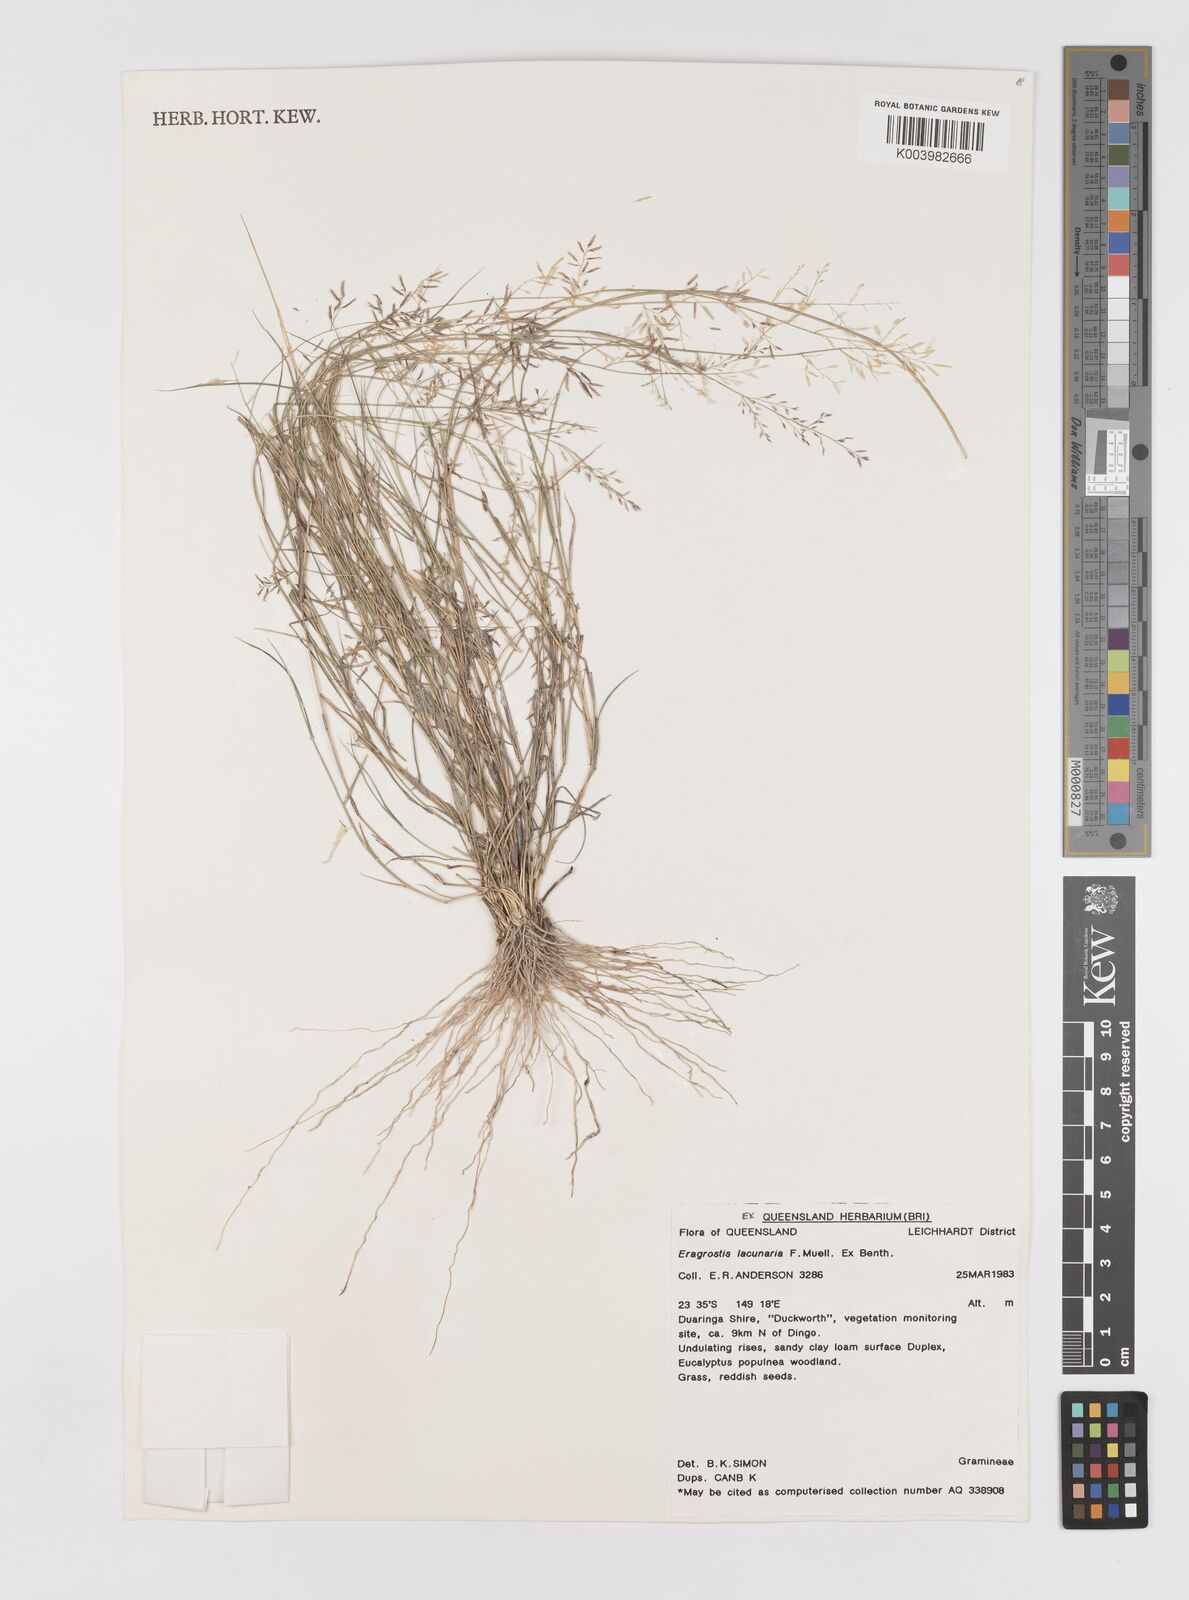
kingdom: Plantae
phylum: Tracheophyta
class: Liliopsida
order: Poales
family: Poaceae
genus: Eragrostis
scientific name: Eragrostis lacunaria
